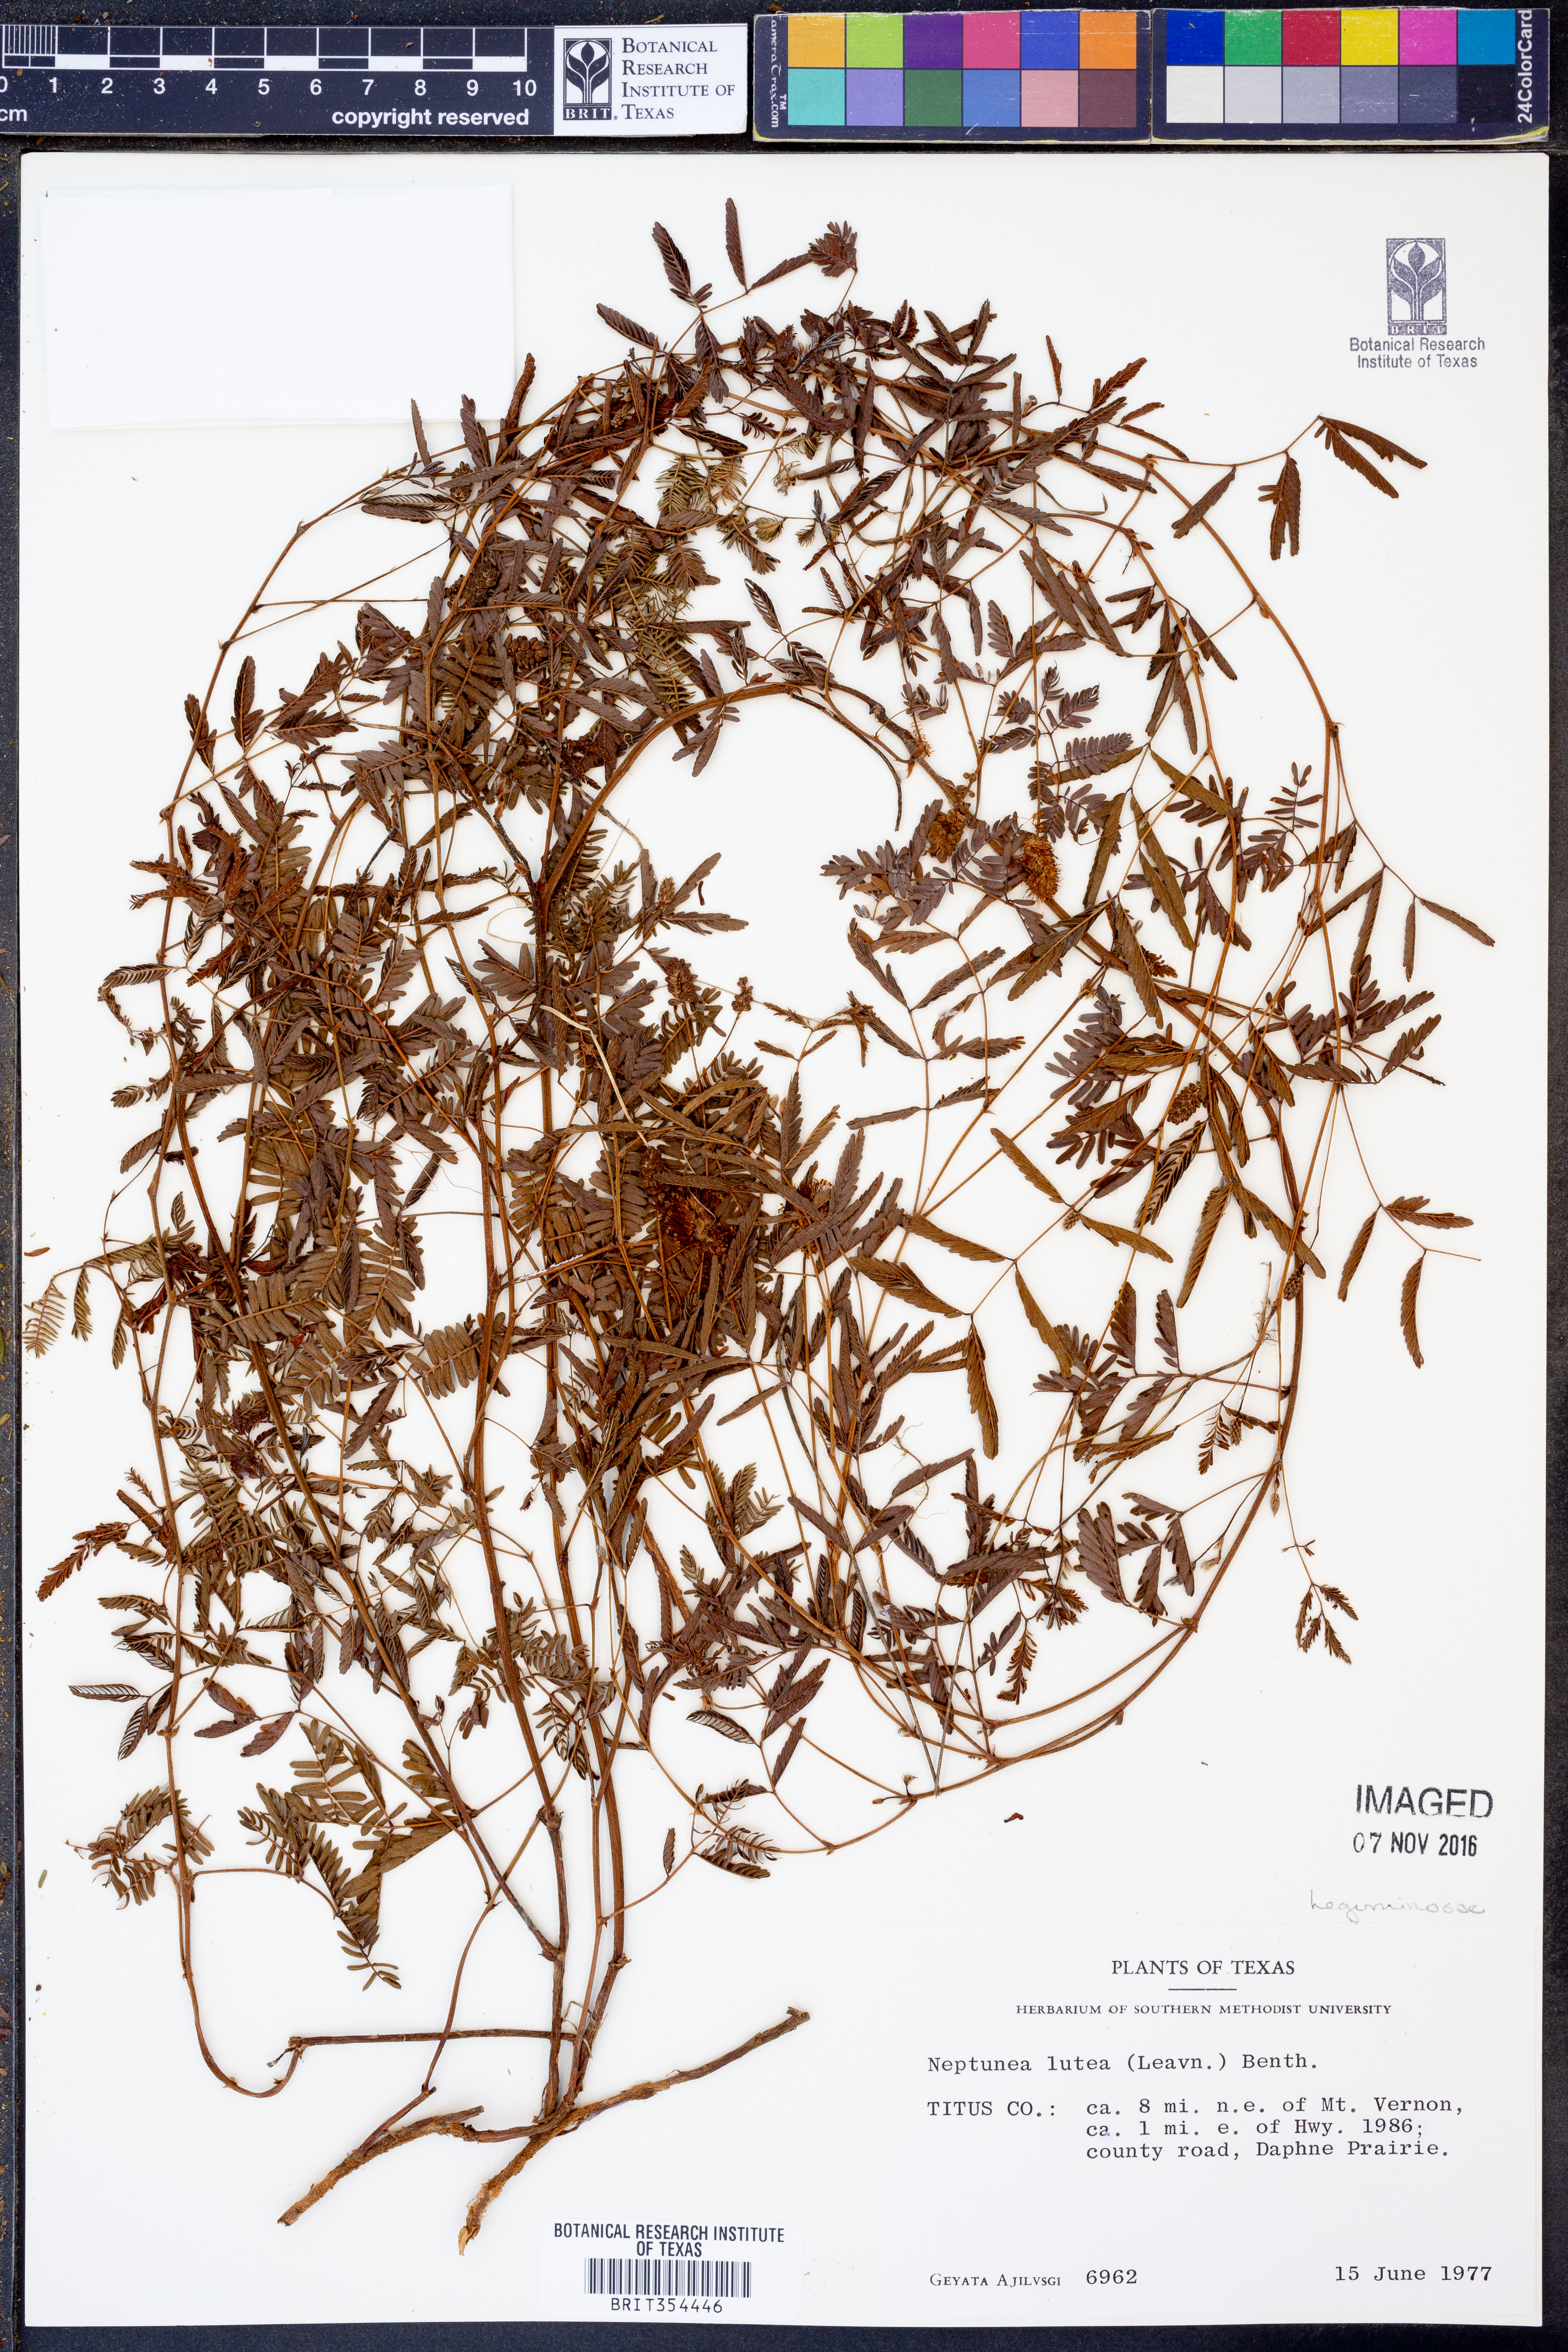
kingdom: Plantae
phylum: Tracheophyta
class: Magnoliopsida
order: Fabales
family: Fabaceae
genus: Neptunia
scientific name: Neptunia lutea
